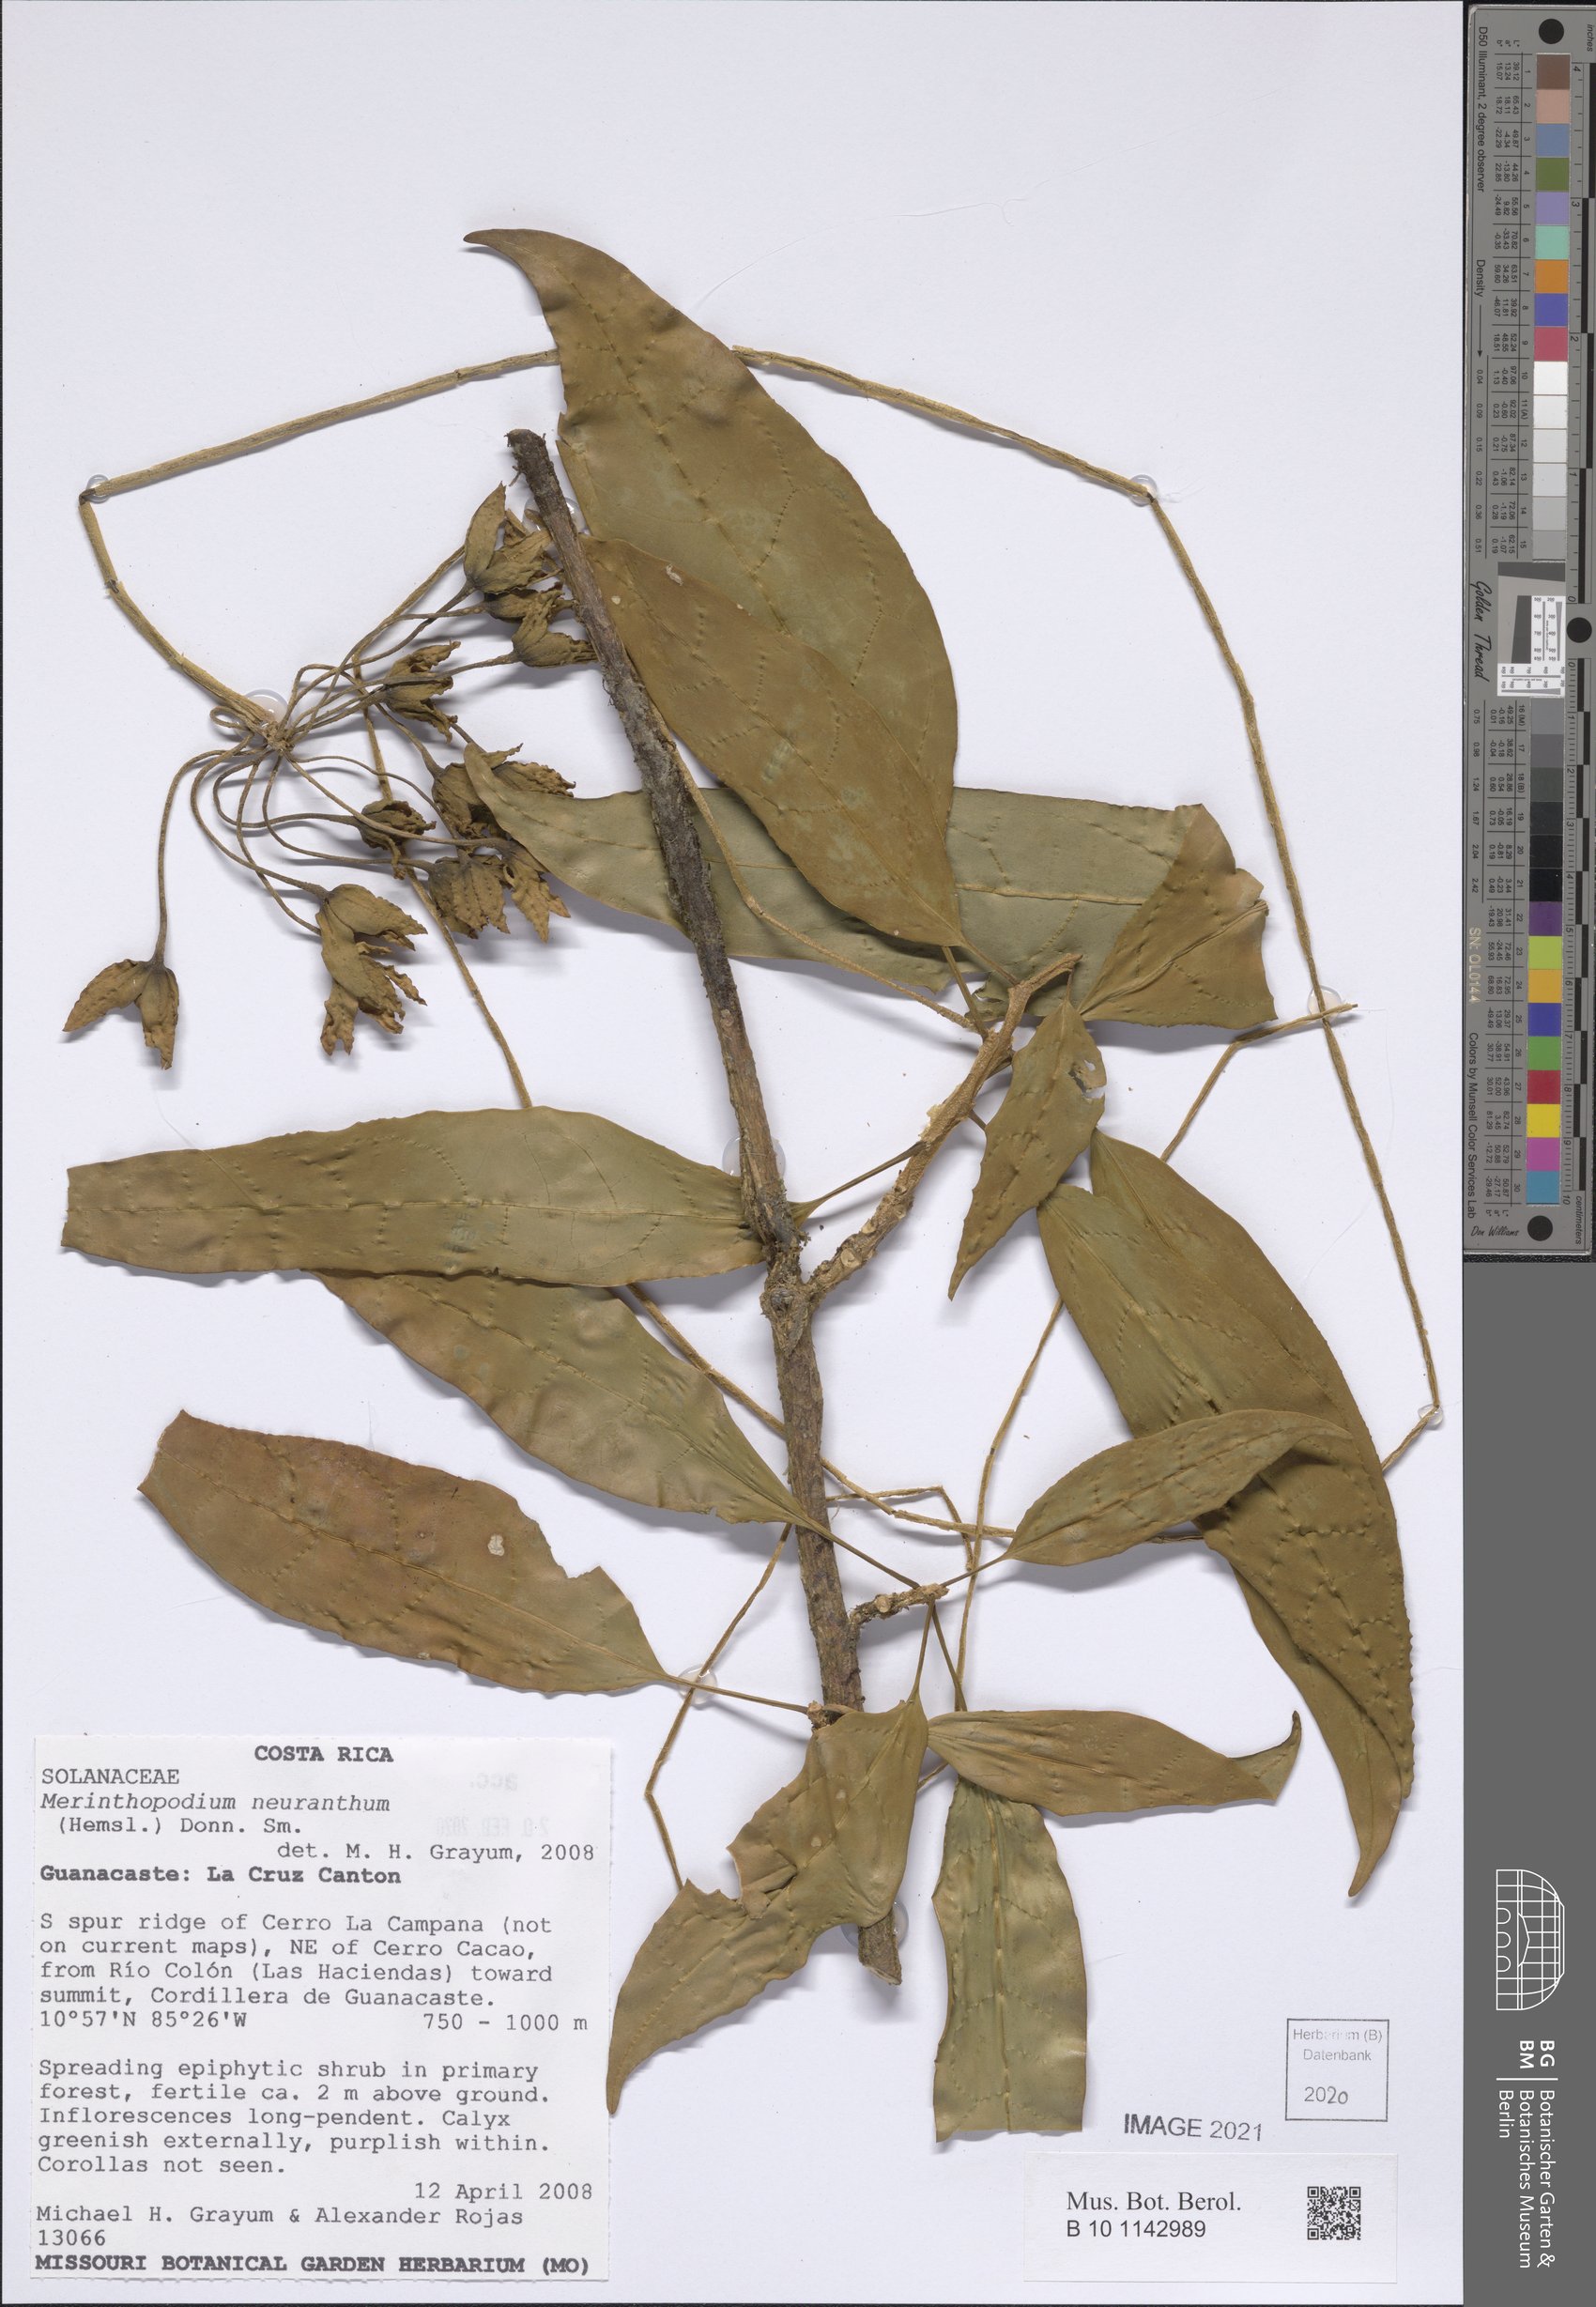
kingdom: Plantae
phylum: Tracheophyta
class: Magnoliopsida
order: Solanales
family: Solanaceae
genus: Merinthopodium
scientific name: Merinthopodium neuranthum
